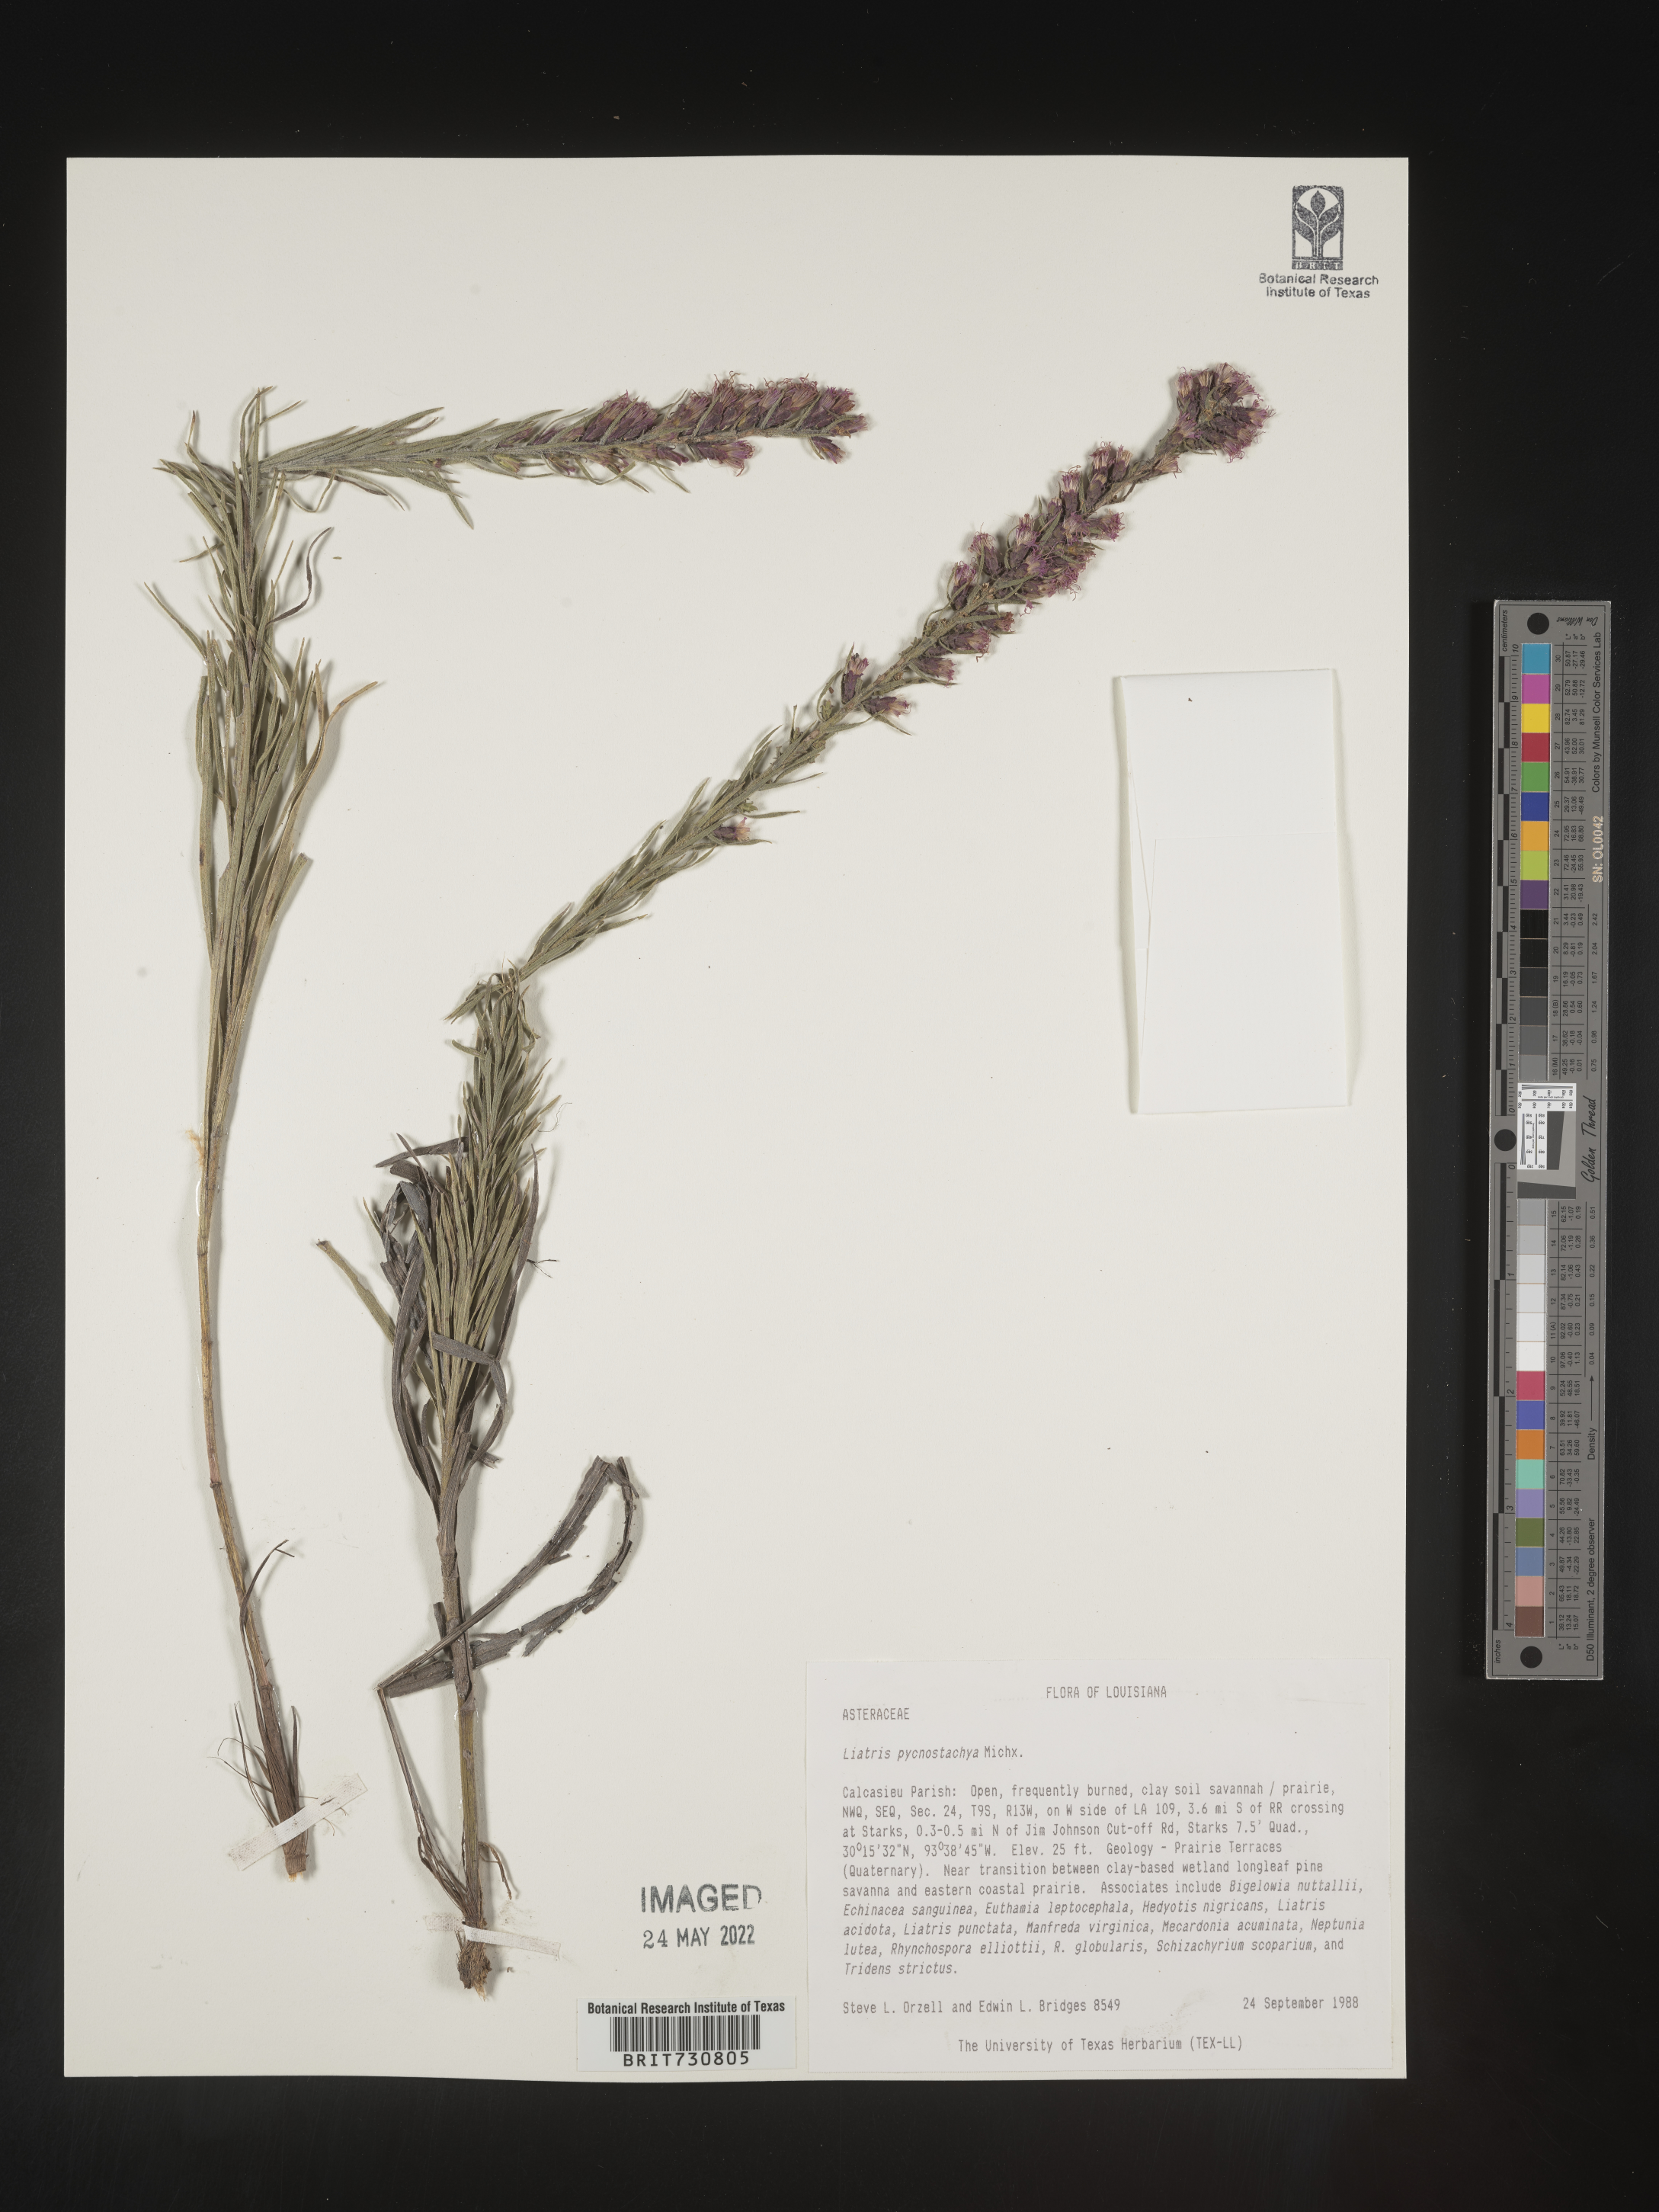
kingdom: Plantae
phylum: Tracheophyta
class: Magnoliopsida
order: Asterales
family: Asteraceae
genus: Liatris
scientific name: Liatris pycnostachya
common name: Cattail gayfeather
